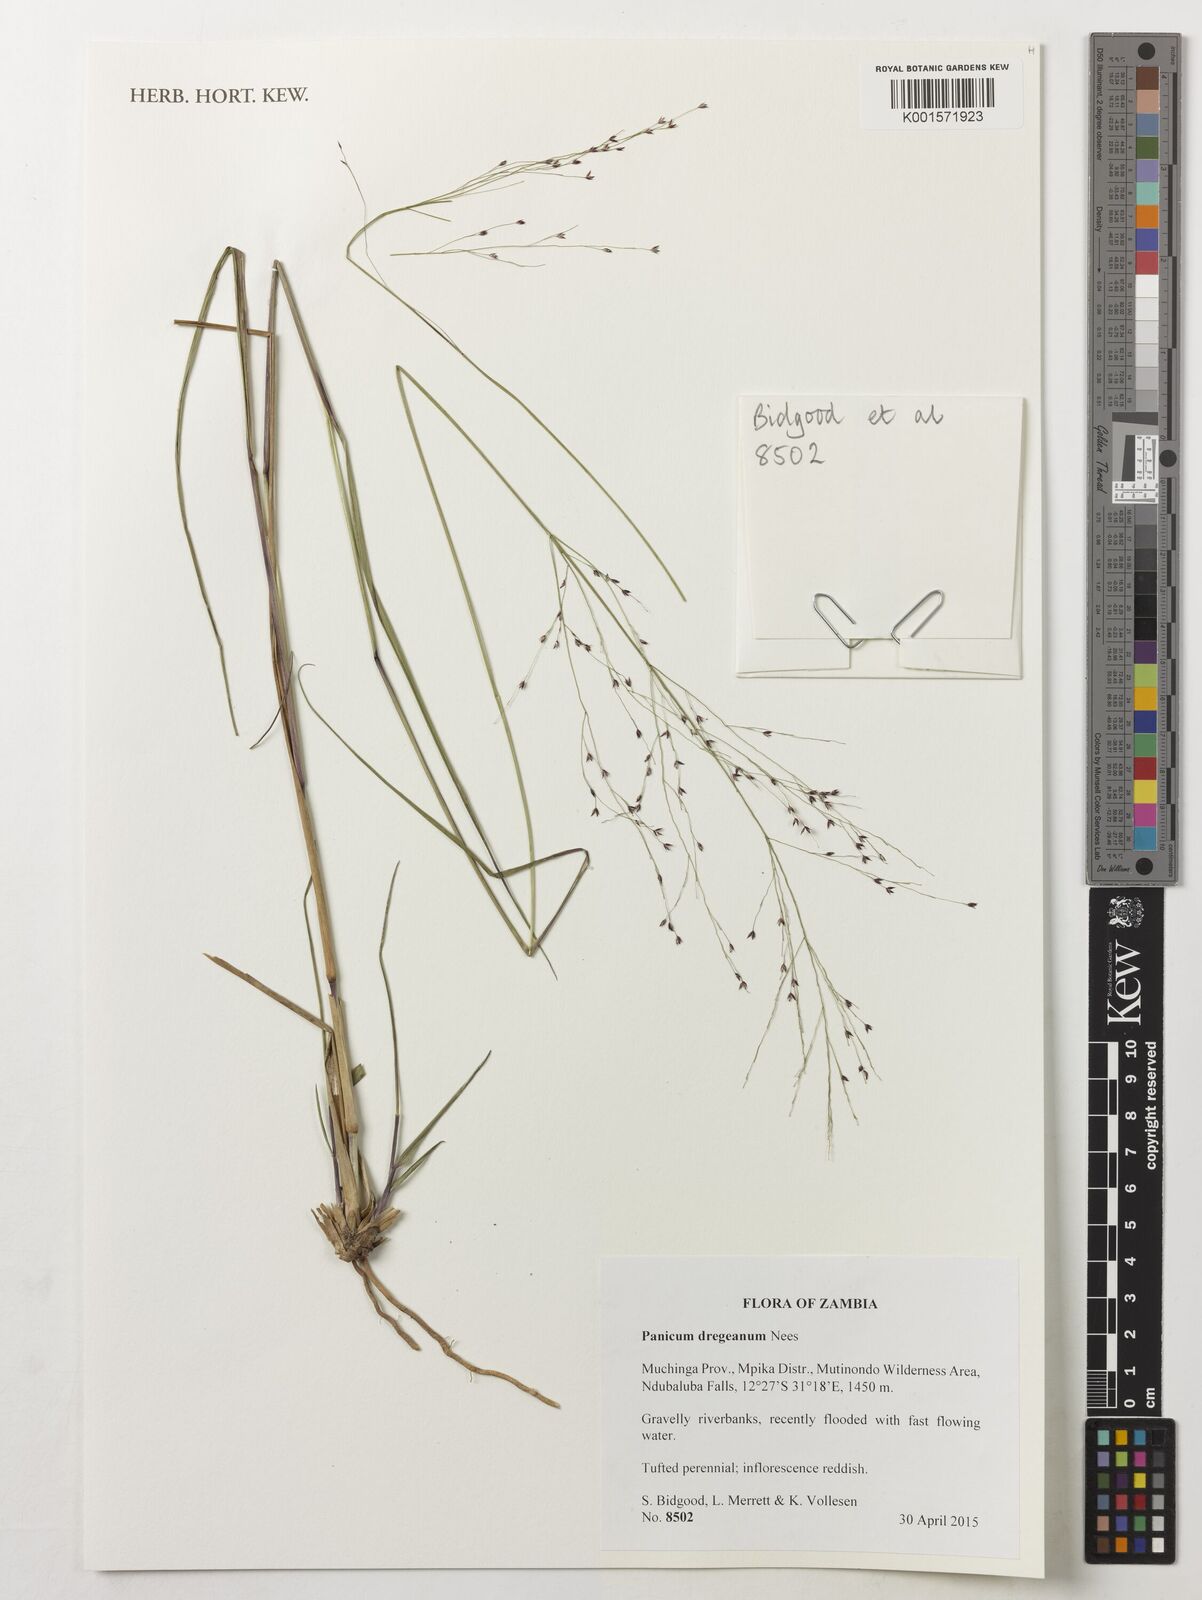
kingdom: Plantae
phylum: Tracheophyta
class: Liliopsida
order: Poales
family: Poaceae
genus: Panicum
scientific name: Panicum dregeanum
